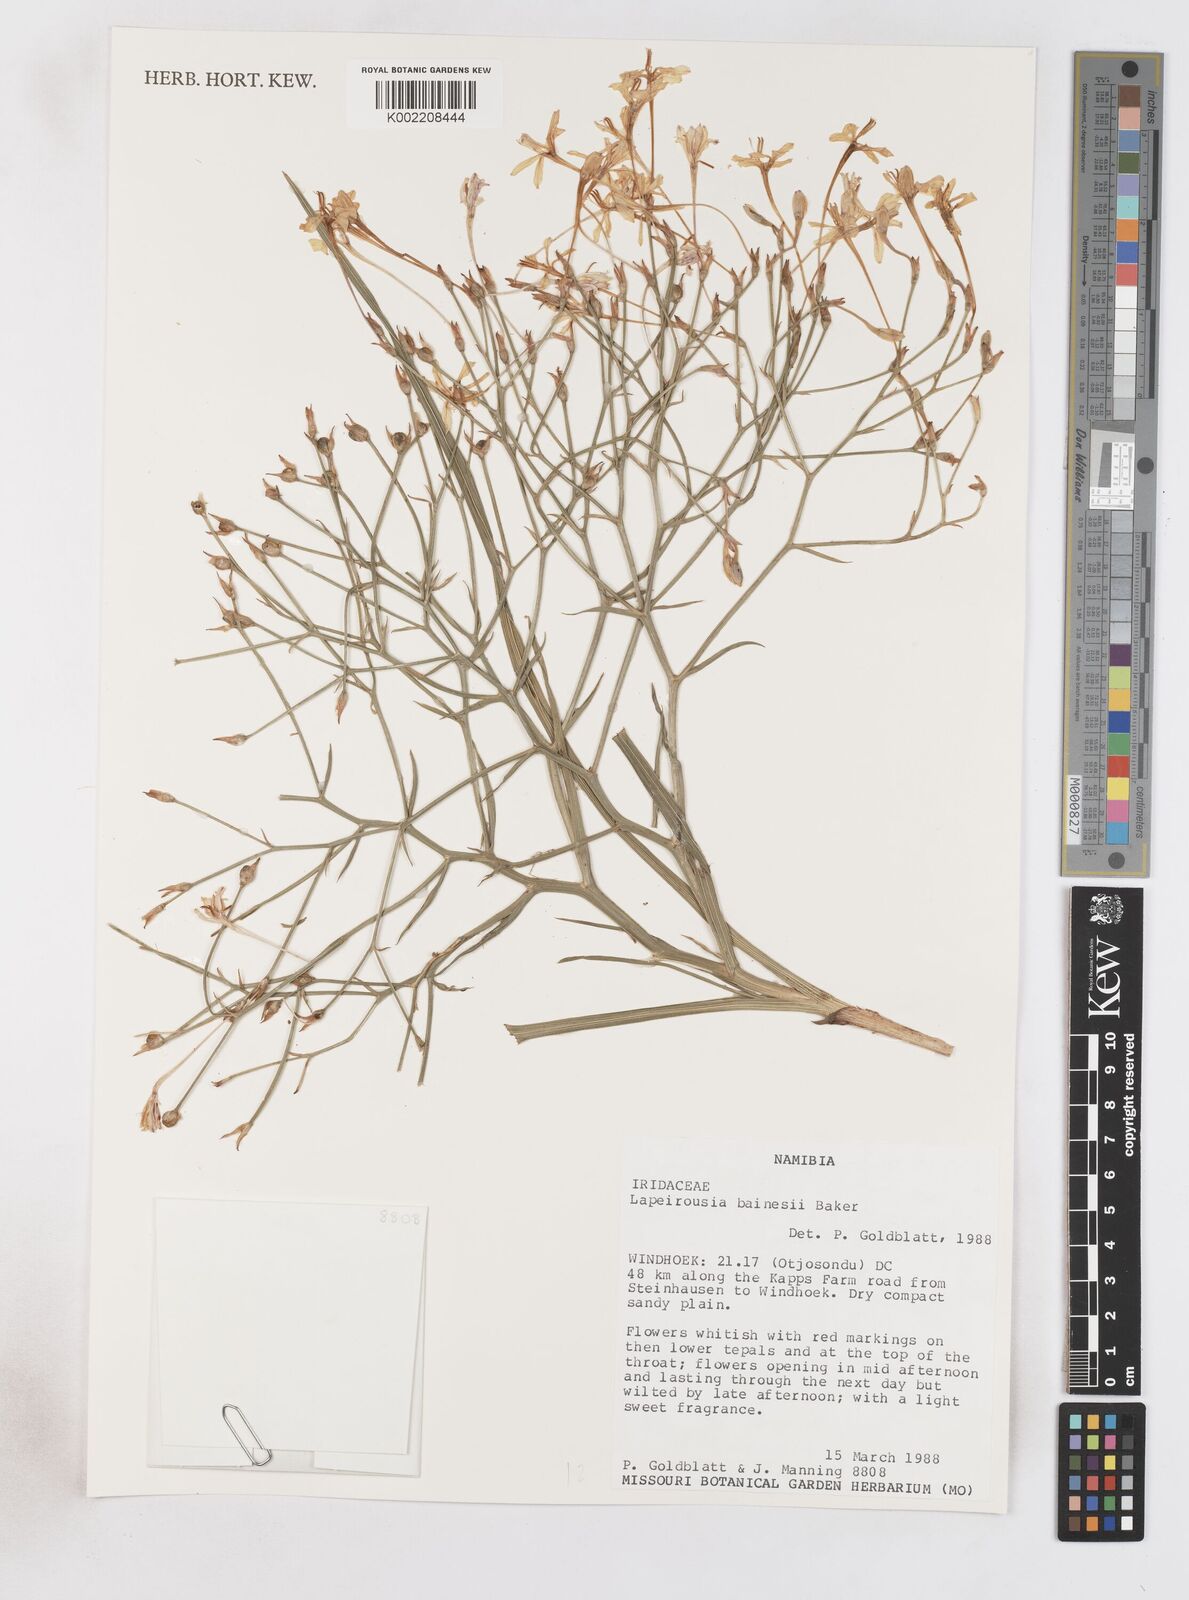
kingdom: Plantae
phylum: Tracheophyta
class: Liliopsida
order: Asparagales
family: Iridaceae
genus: Afrosolen
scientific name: Afrosolen bainesii
